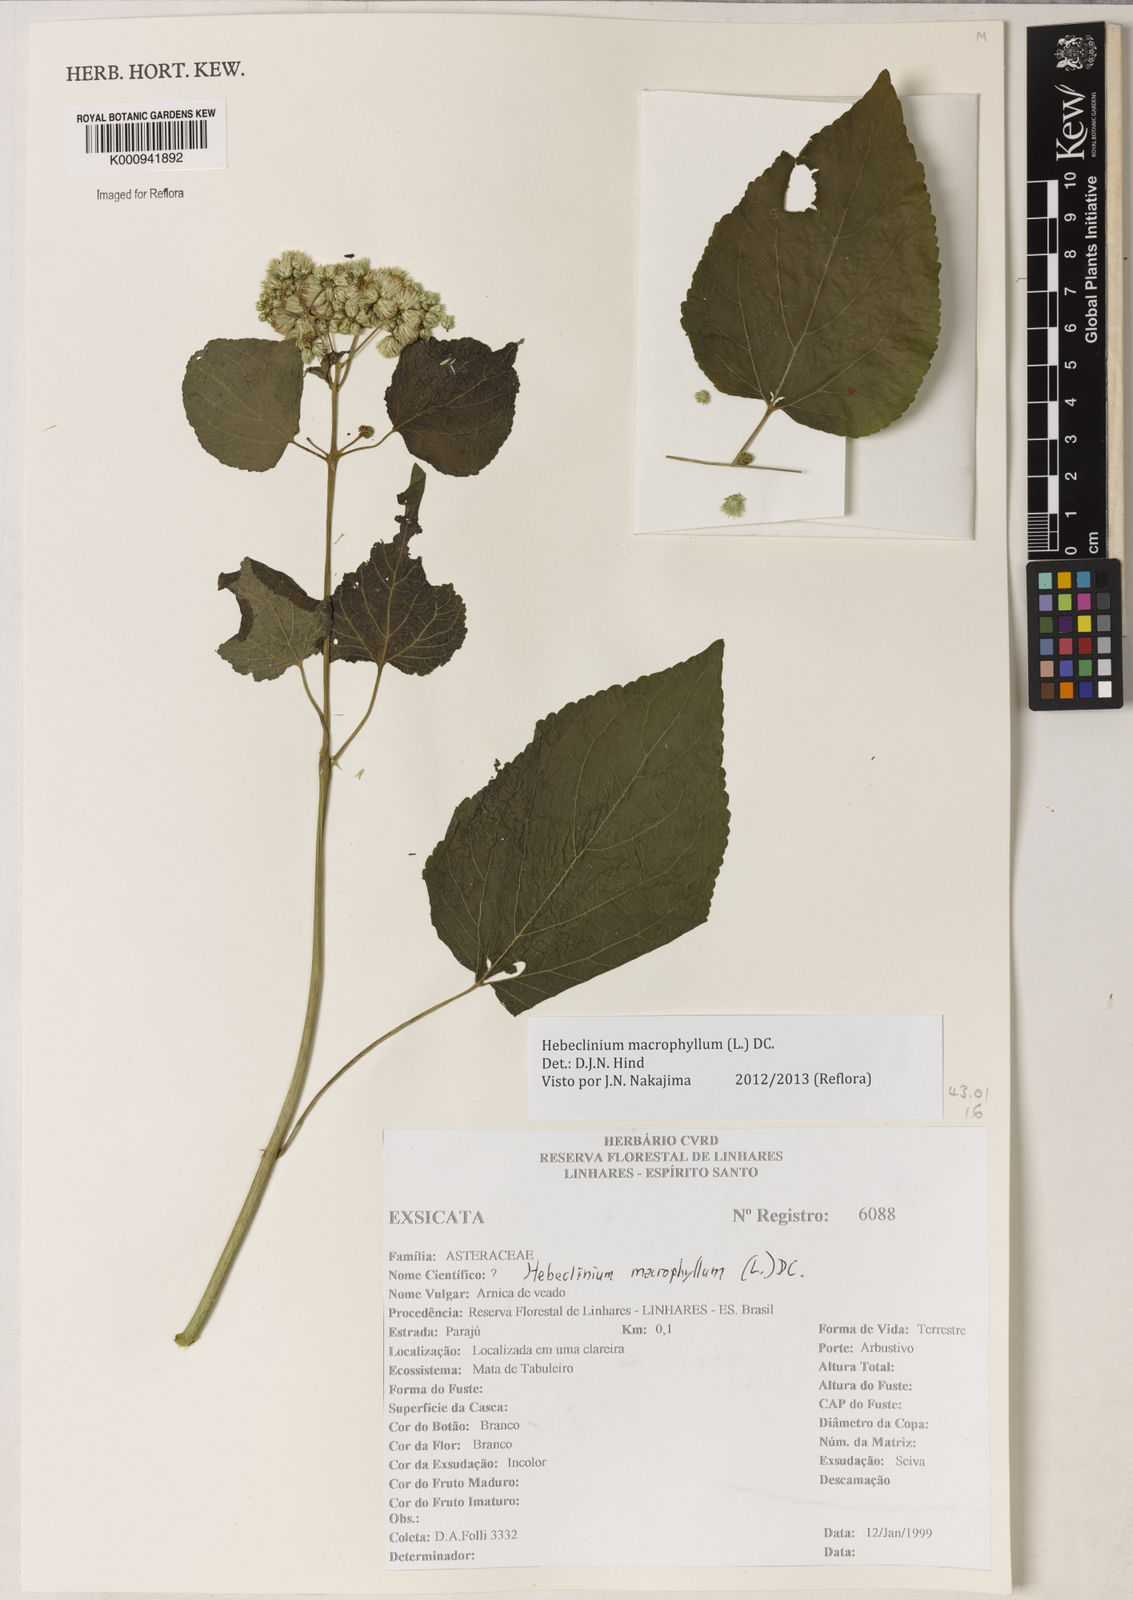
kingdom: Plantae
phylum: Tracheophyta
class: Magnoliopsida
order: Asterales
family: Asteraceae
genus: Hebeclinium
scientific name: Hebeclinium macrophyllum
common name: Largeleaf thoroughwort
